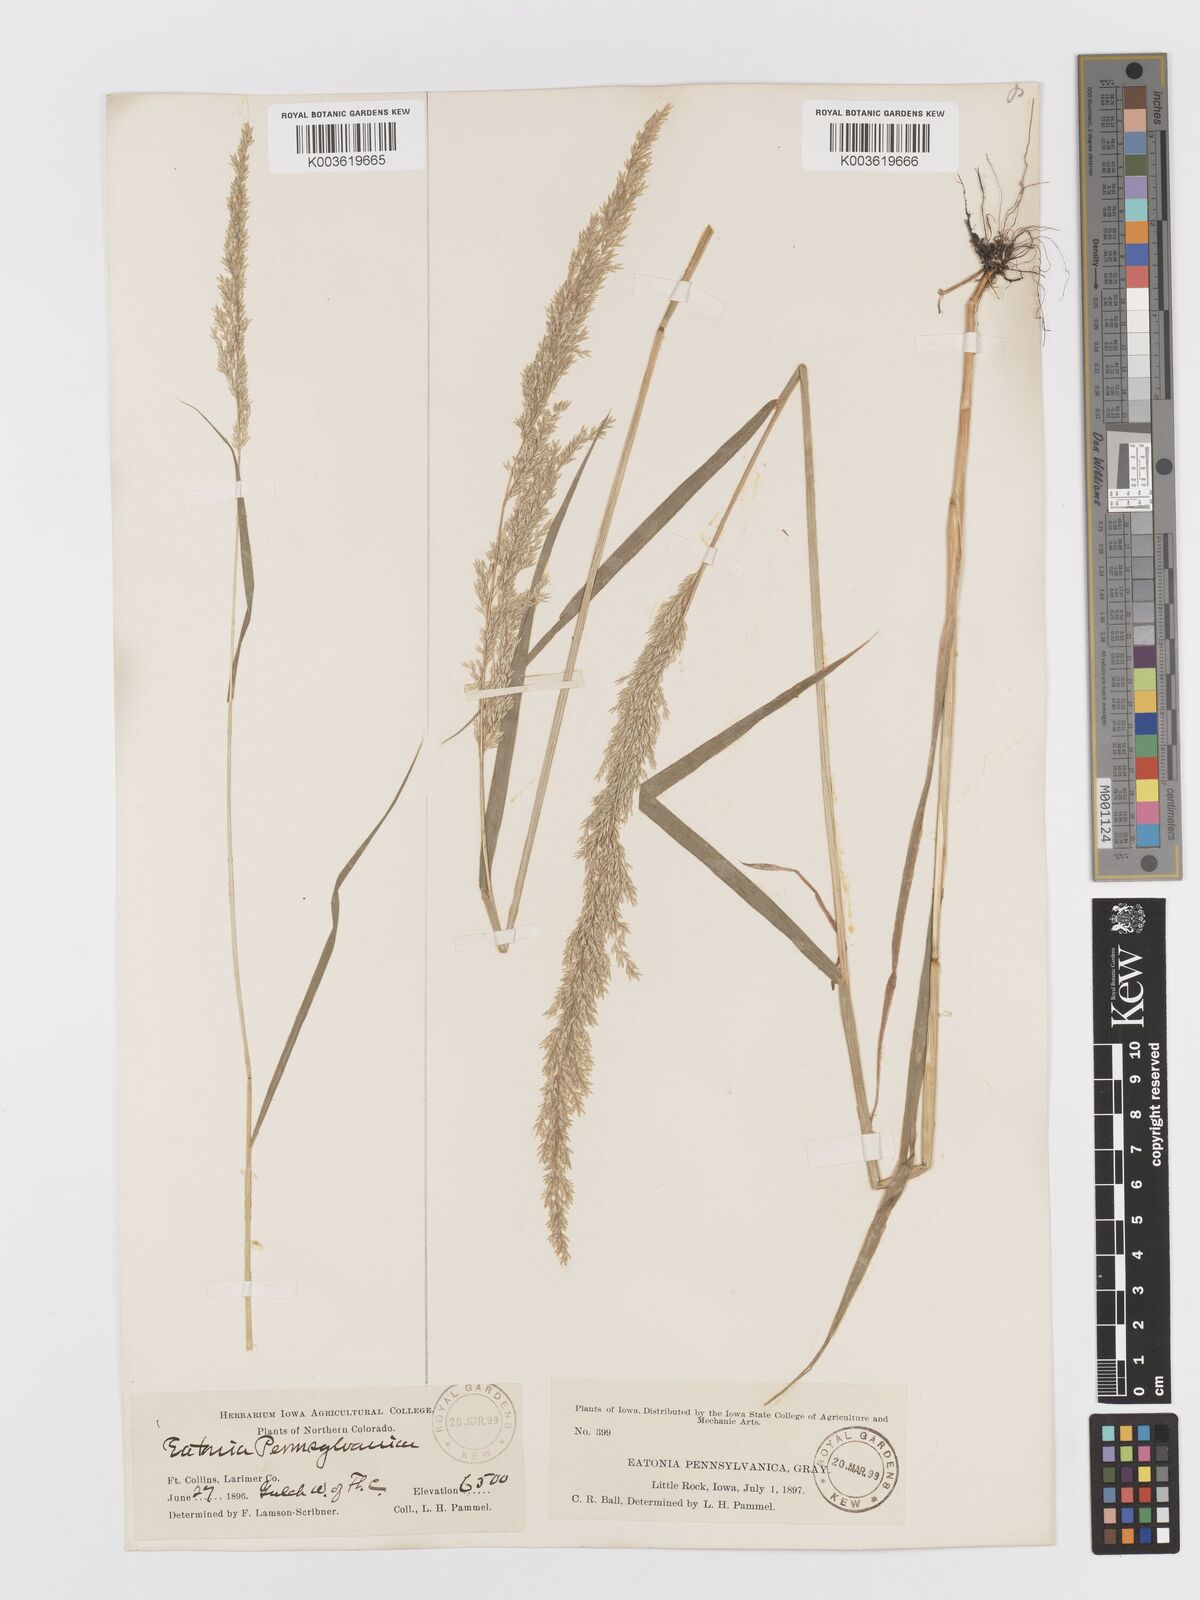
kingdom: Plantae
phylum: Tracheophyta
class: Liliopsida
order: Poales
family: Poaceae
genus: Sphenopholis
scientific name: Sphenopholis obtusata
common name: Prairie grass
